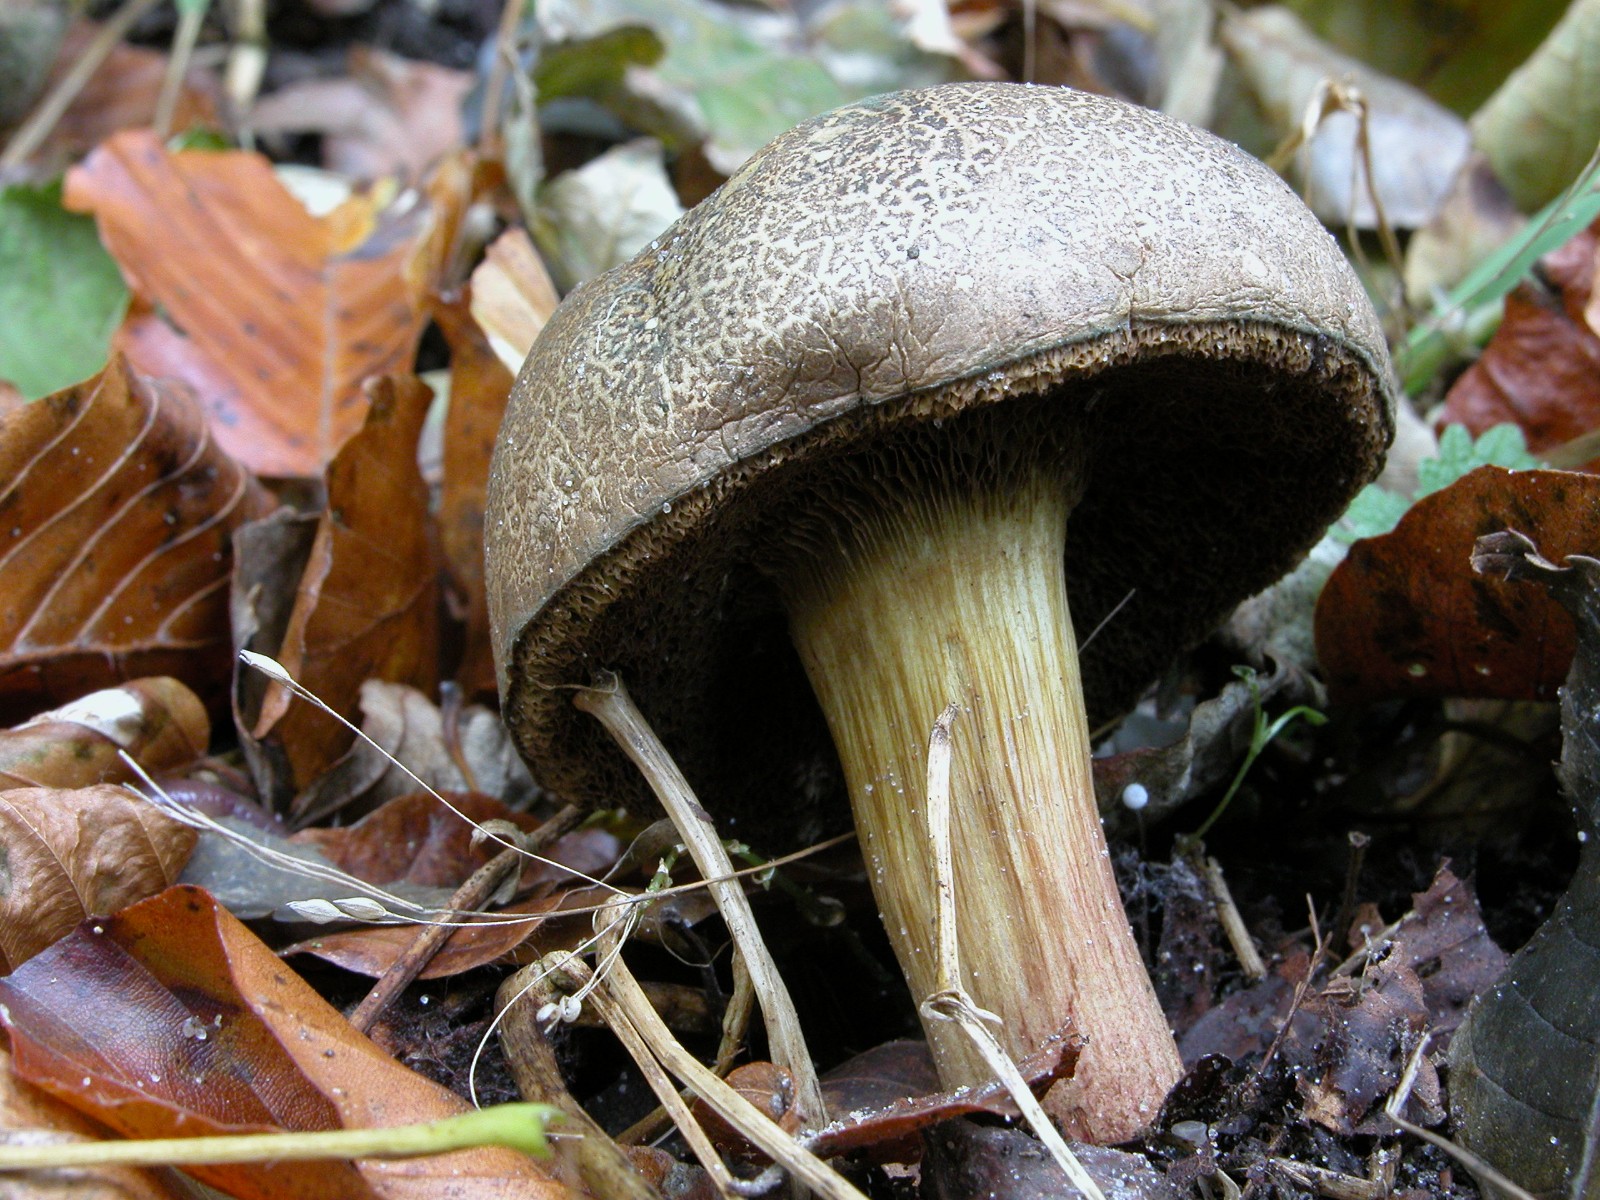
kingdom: Fungi
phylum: Basidiomycota
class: Agaricomycetes
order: Boletales
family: Boletaceae
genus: Xerocomellus
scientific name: Xerocomellus porosporus
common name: hvidsprukken rørhat
